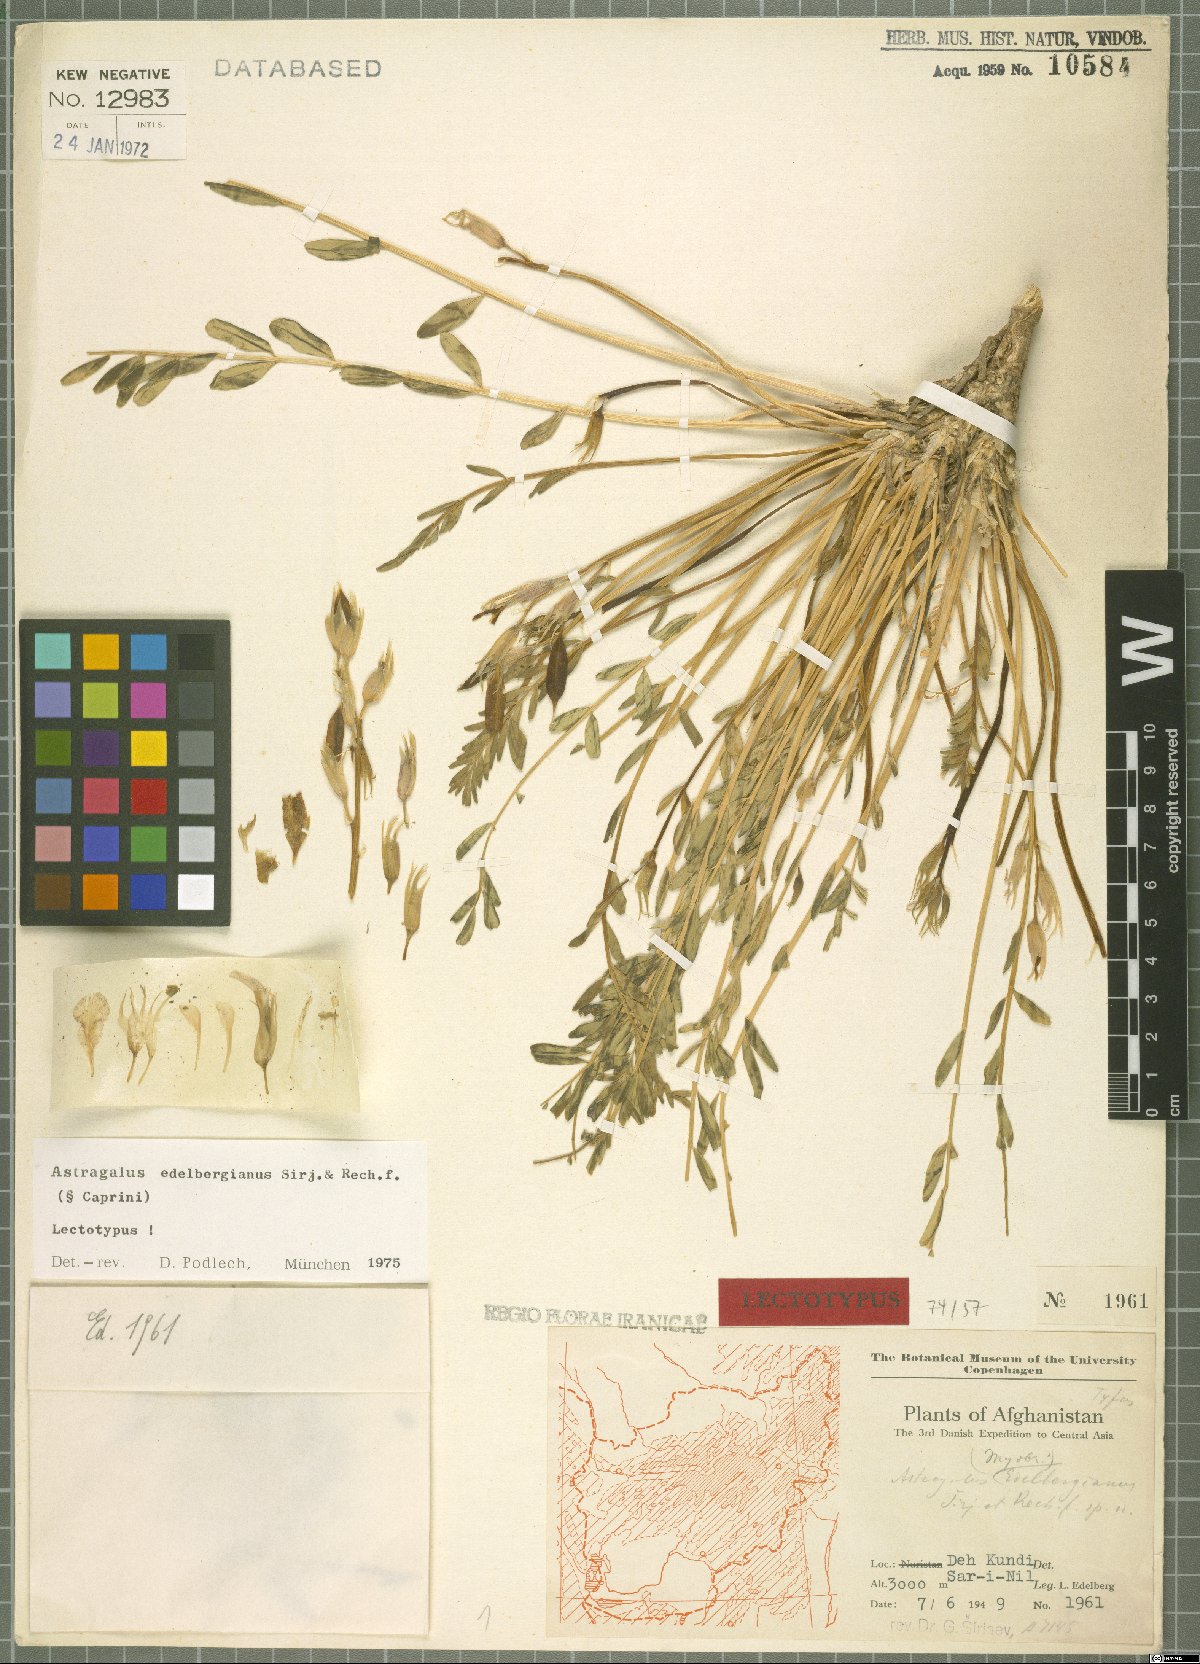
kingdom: Plantae
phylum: Tracheophyta
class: Magnoliopsida
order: Fabales
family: Fabaceae
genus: Astragalus
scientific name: Astragalus edelbergianus
